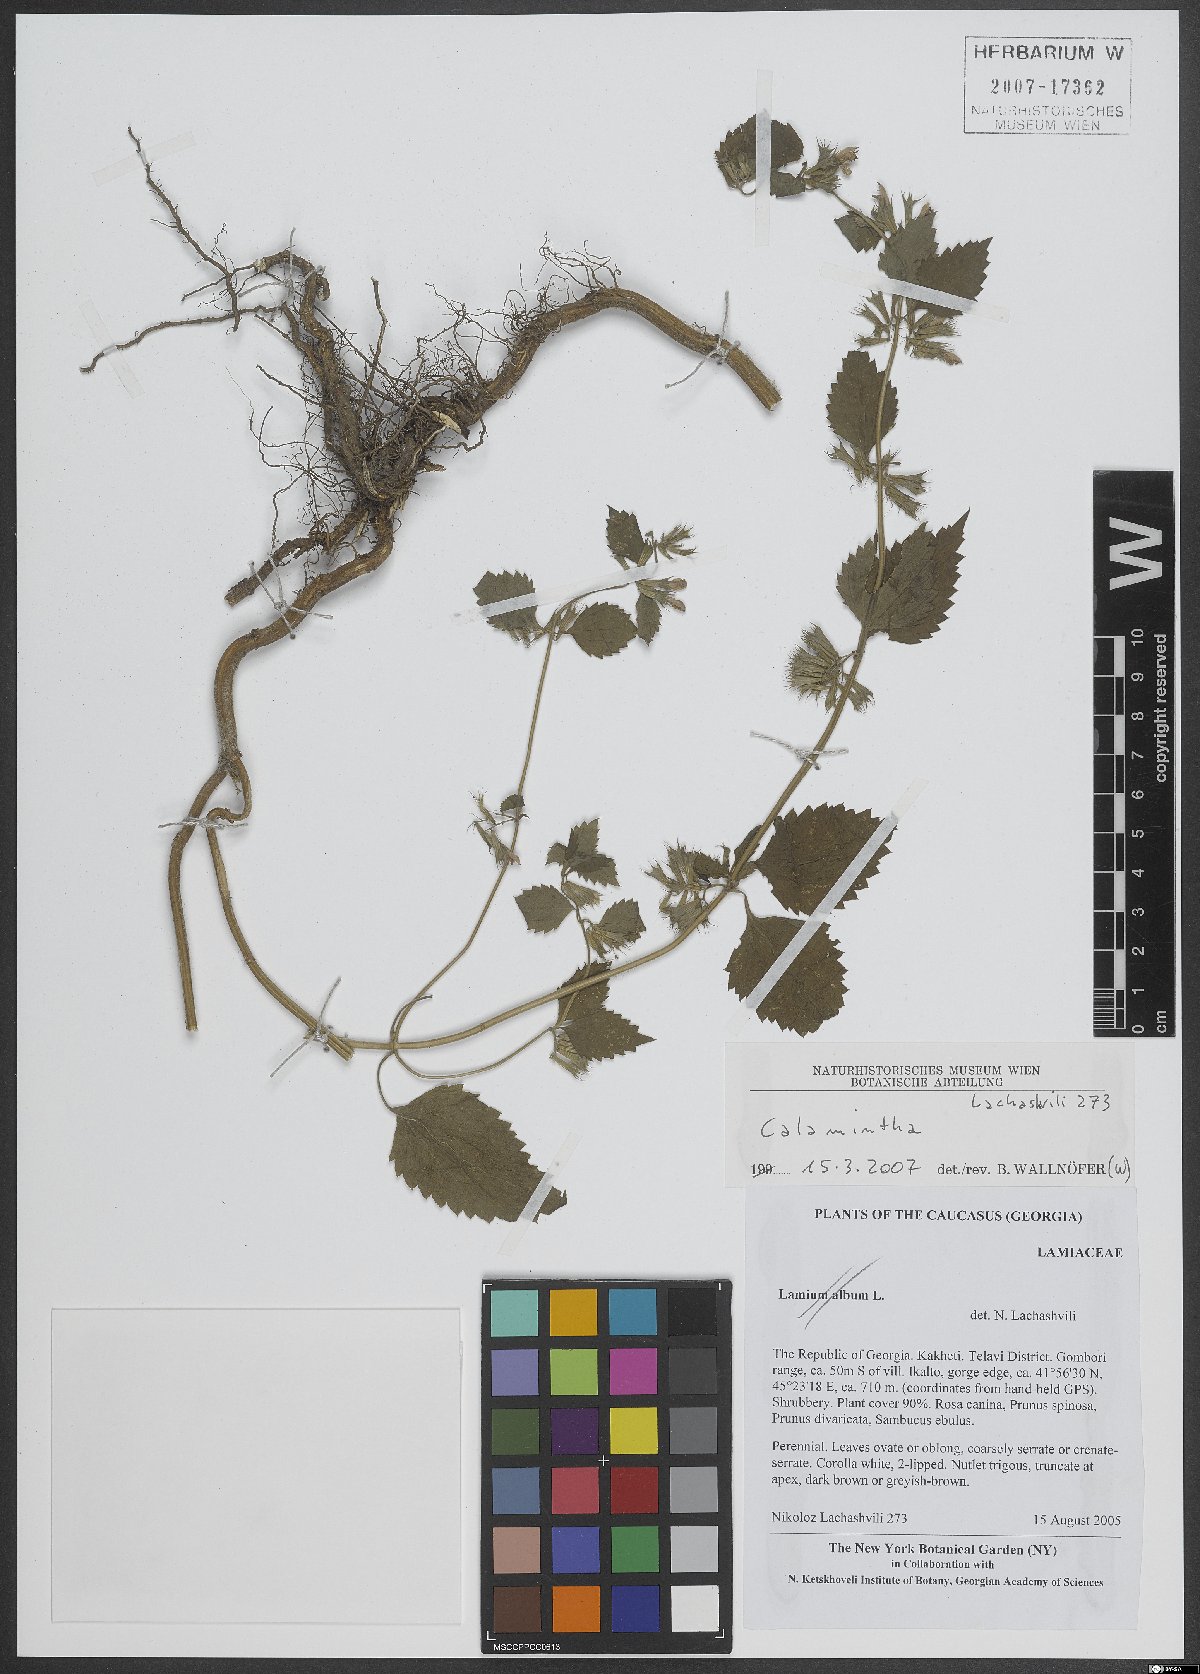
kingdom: Plantae
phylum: Tracheophyta
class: Magnoliopsida
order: Lamiales
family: Lamiaceae
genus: Calamintha
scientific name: Calamintha
